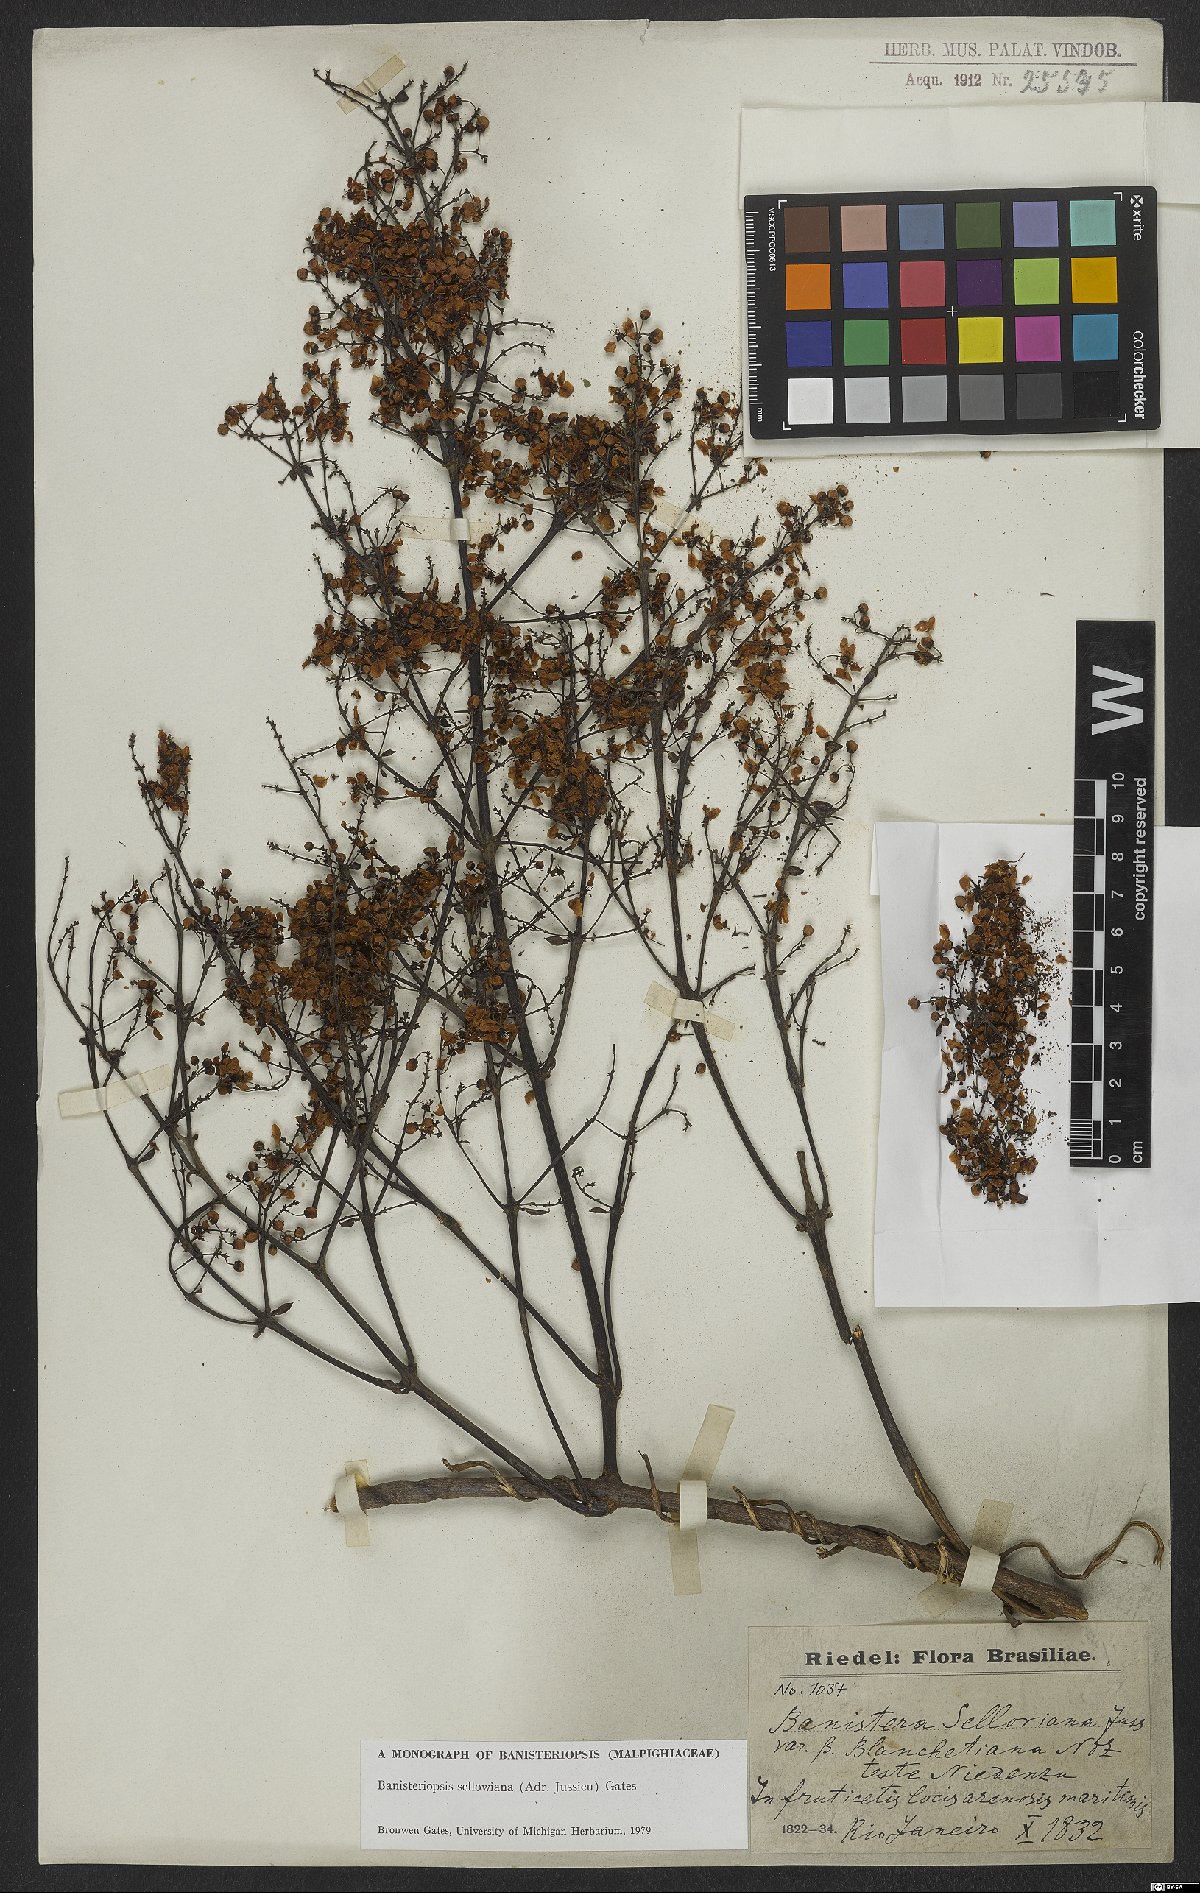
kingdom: Plantae
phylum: Tracheophyta
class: Magnoliopsida
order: Malpighiales
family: Malpighiaceae
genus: Banisteriopsis
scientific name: Banisteriopsis sellowiana
